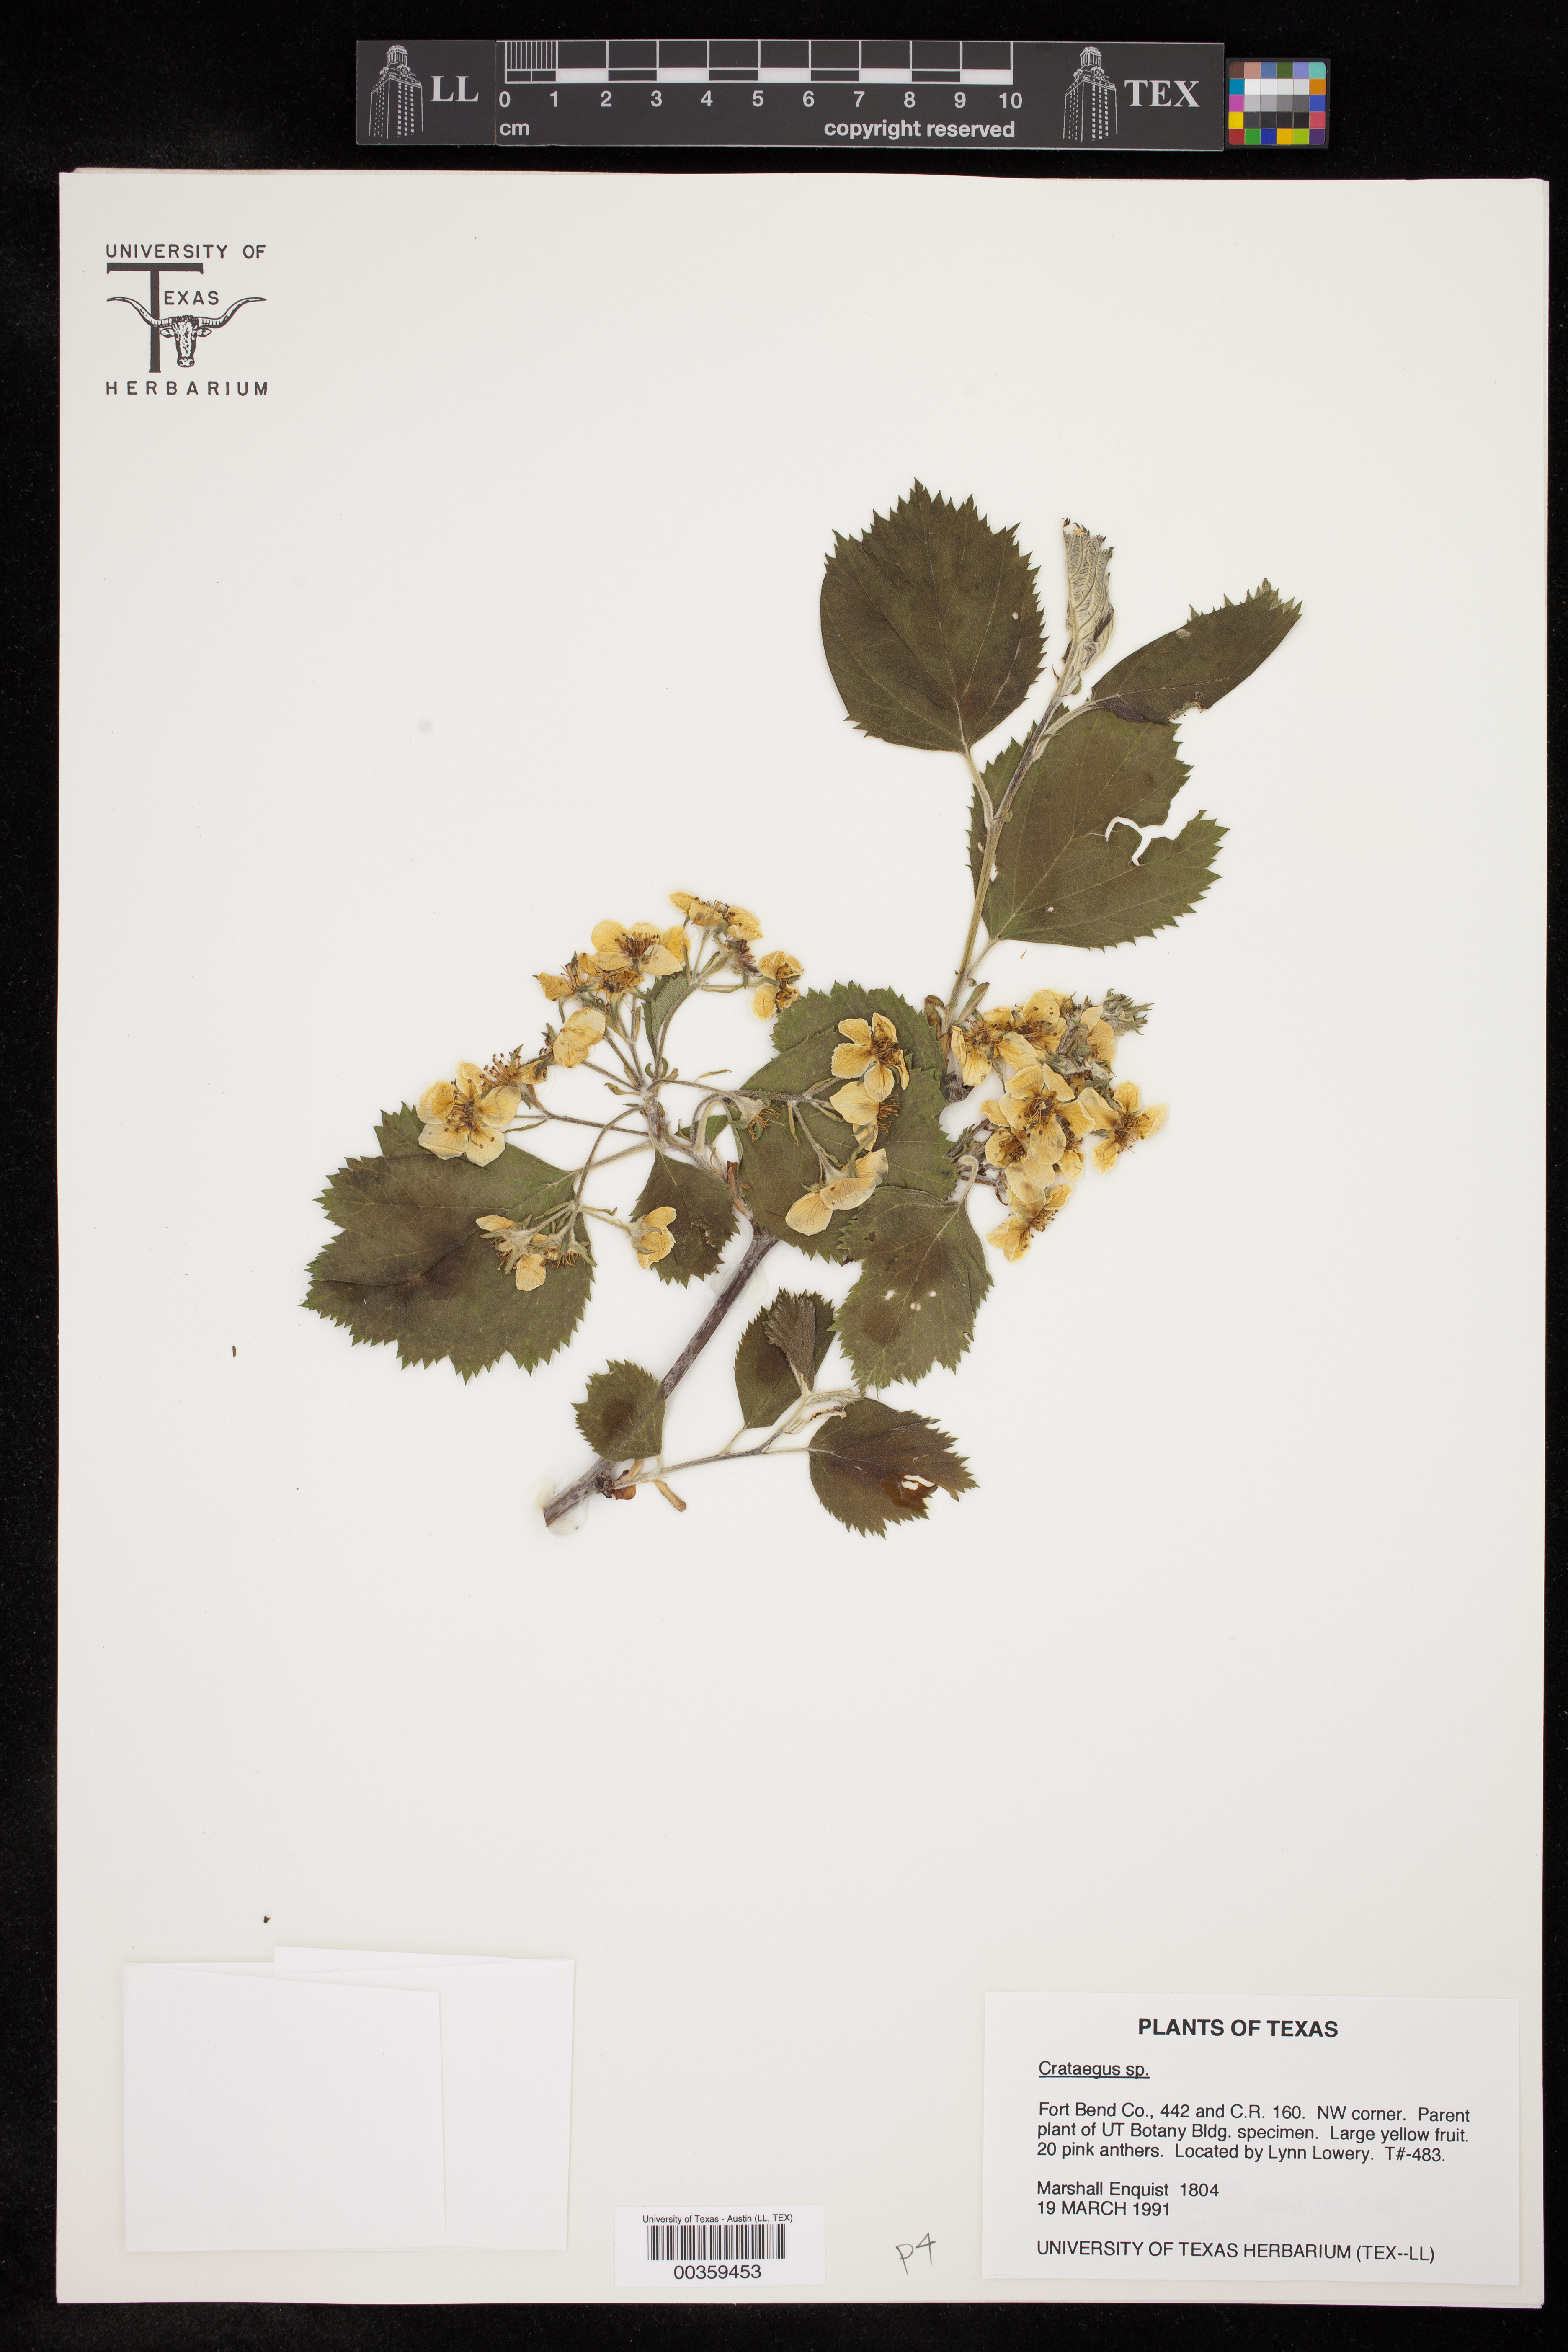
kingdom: Plantae
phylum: Tracheophyta
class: Magnoliopsida
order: Rosales
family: Rosaceae
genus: Crataegus
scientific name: Crataegus
